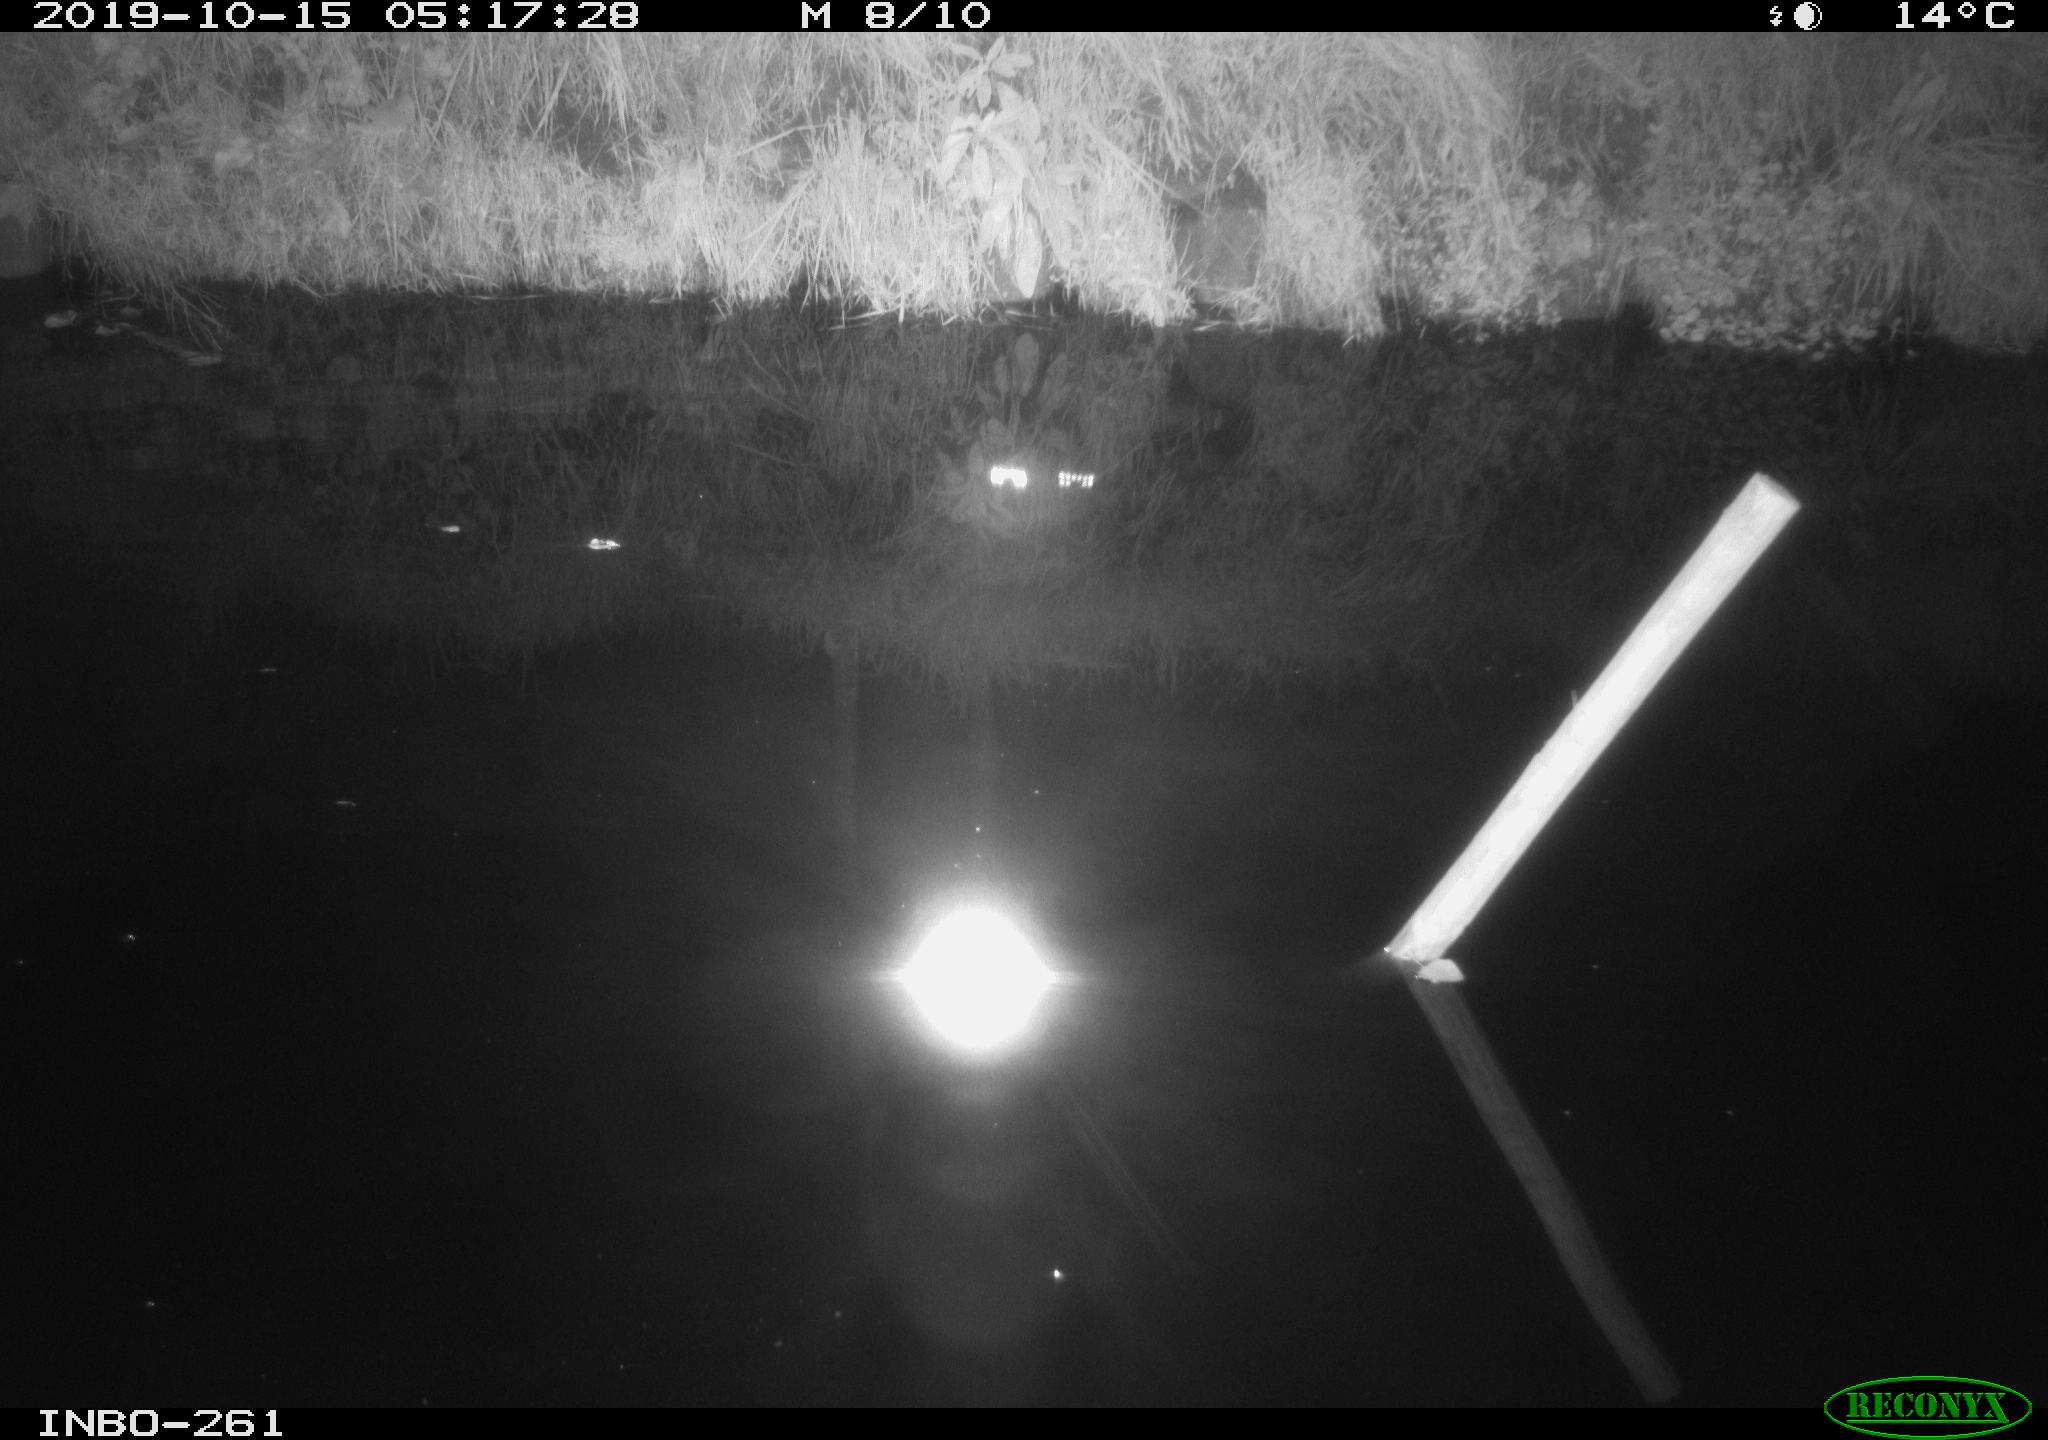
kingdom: Animalia
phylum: Chordata
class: Aves
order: Anseriformes
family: Anatidae
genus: Anas
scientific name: Anas platyrhynchos
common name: Mallard
